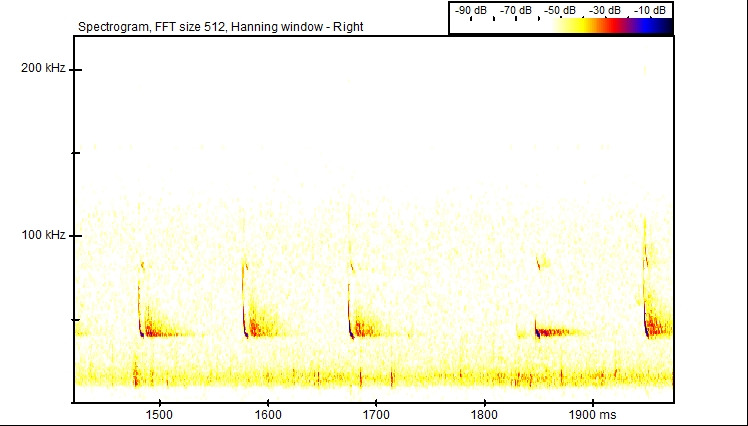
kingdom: Animalia
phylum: Chordata
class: Mammalia
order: Chiroptera
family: Vespertilionidae
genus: Pipistrellus
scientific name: Pipistrellus nathusii
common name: Troldflagermus
